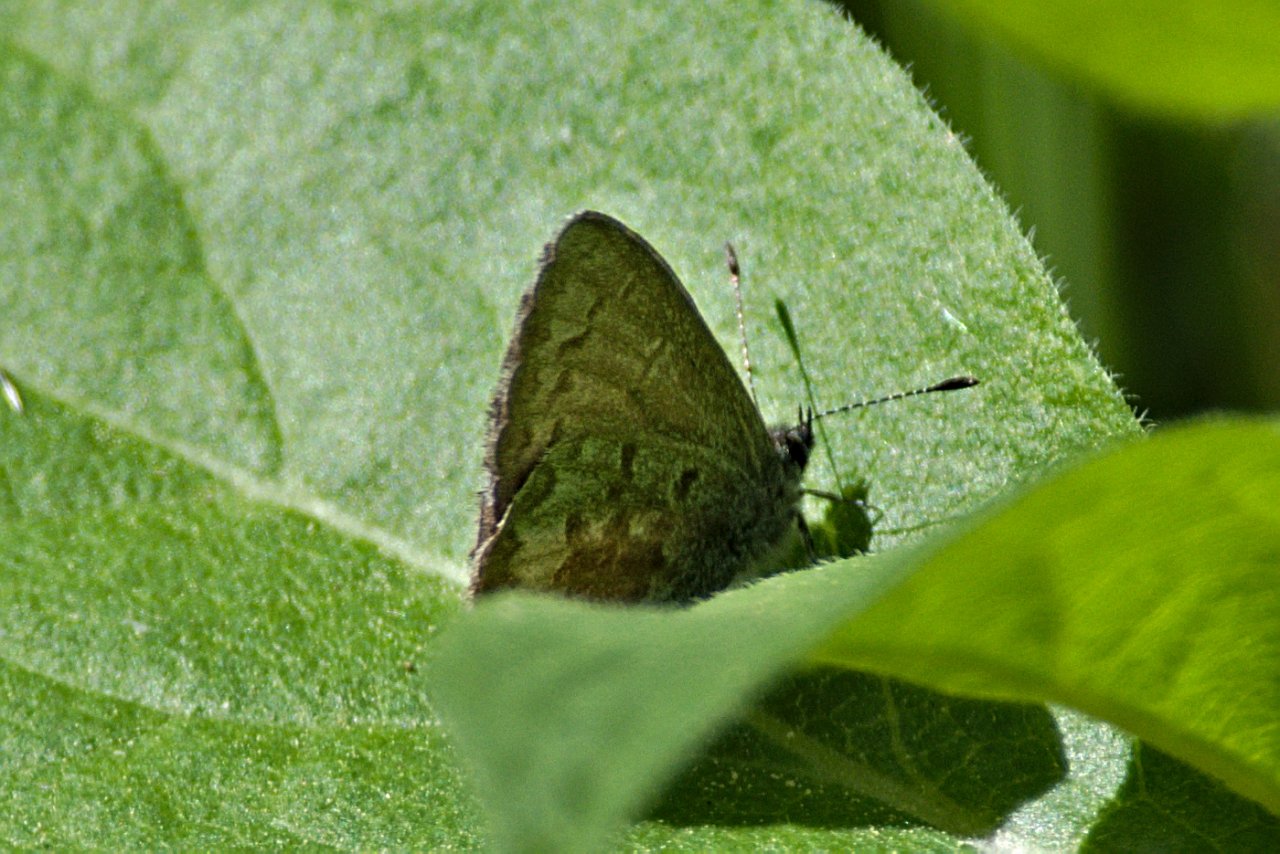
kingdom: Animalia
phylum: Arthropoda
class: Insecta
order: Lepidoptera
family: Lycaenidae
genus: Celastrina
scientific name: Celastrina lucia
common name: Northern Spring Azure
